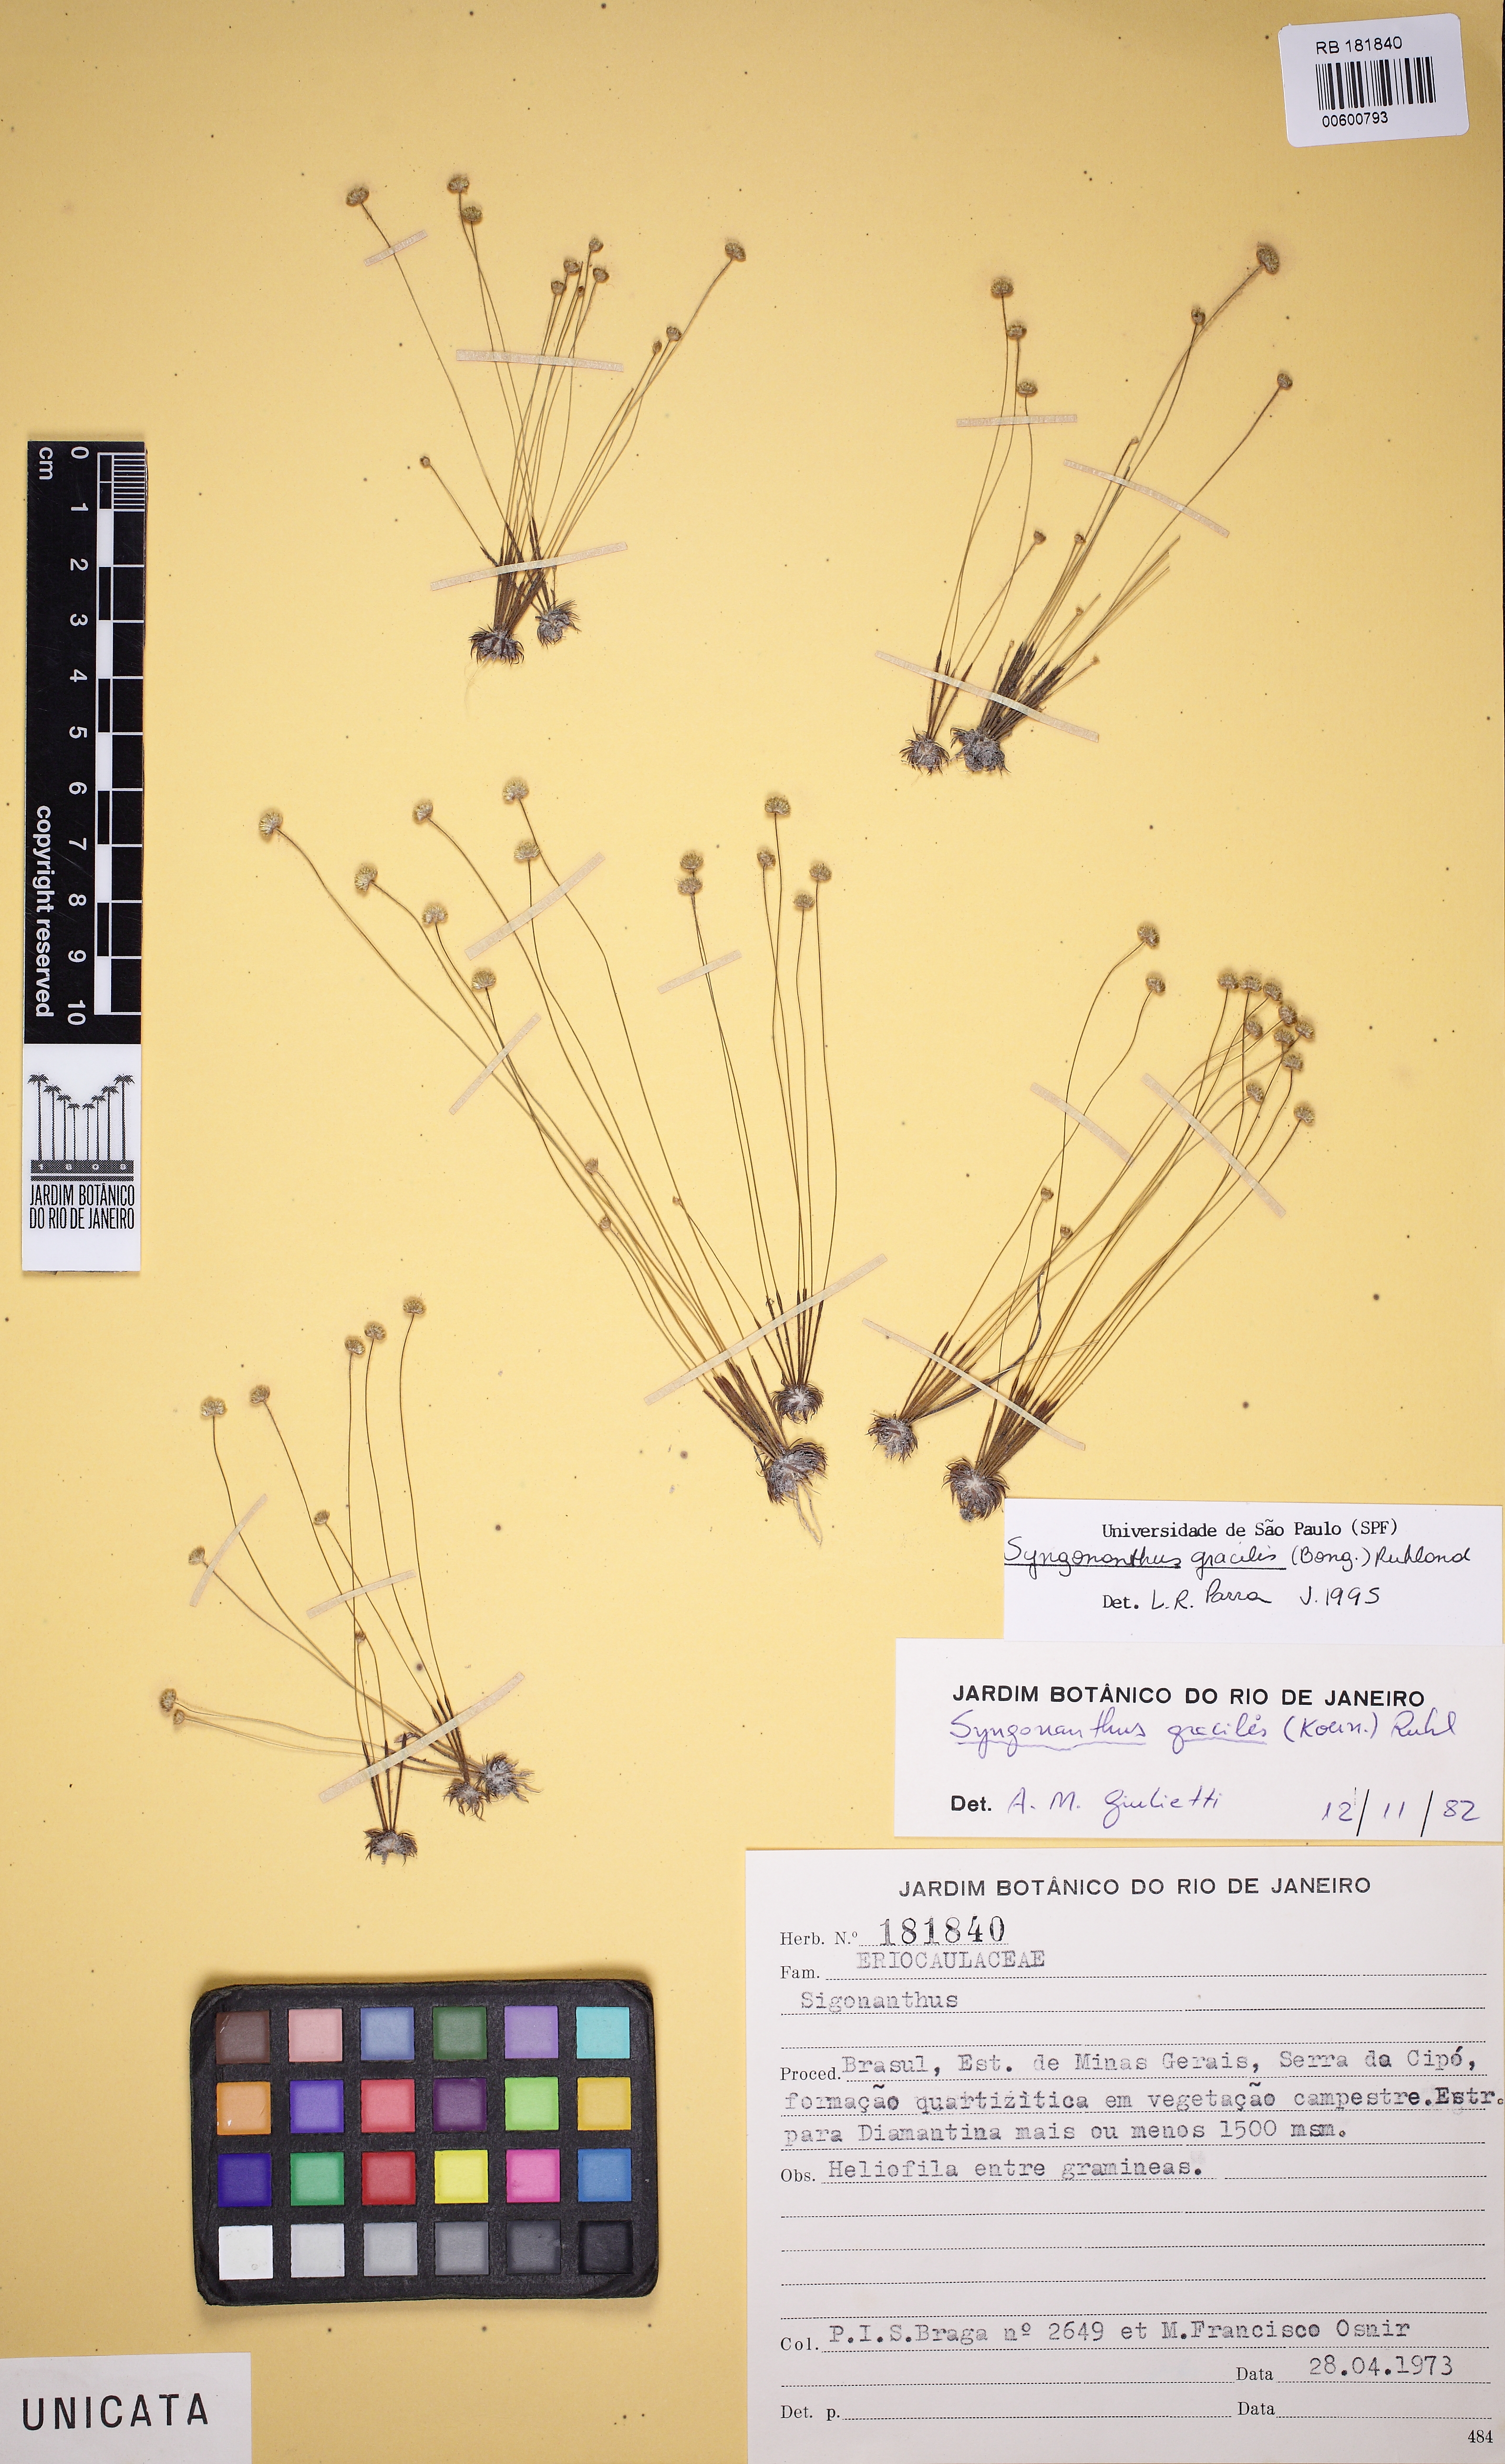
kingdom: Plantae
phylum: Tracheophyta
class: Liliopsida
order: Poales
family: Eriocaulaceae
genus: Syngonanthus
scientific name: Syngonanthus gracilis
